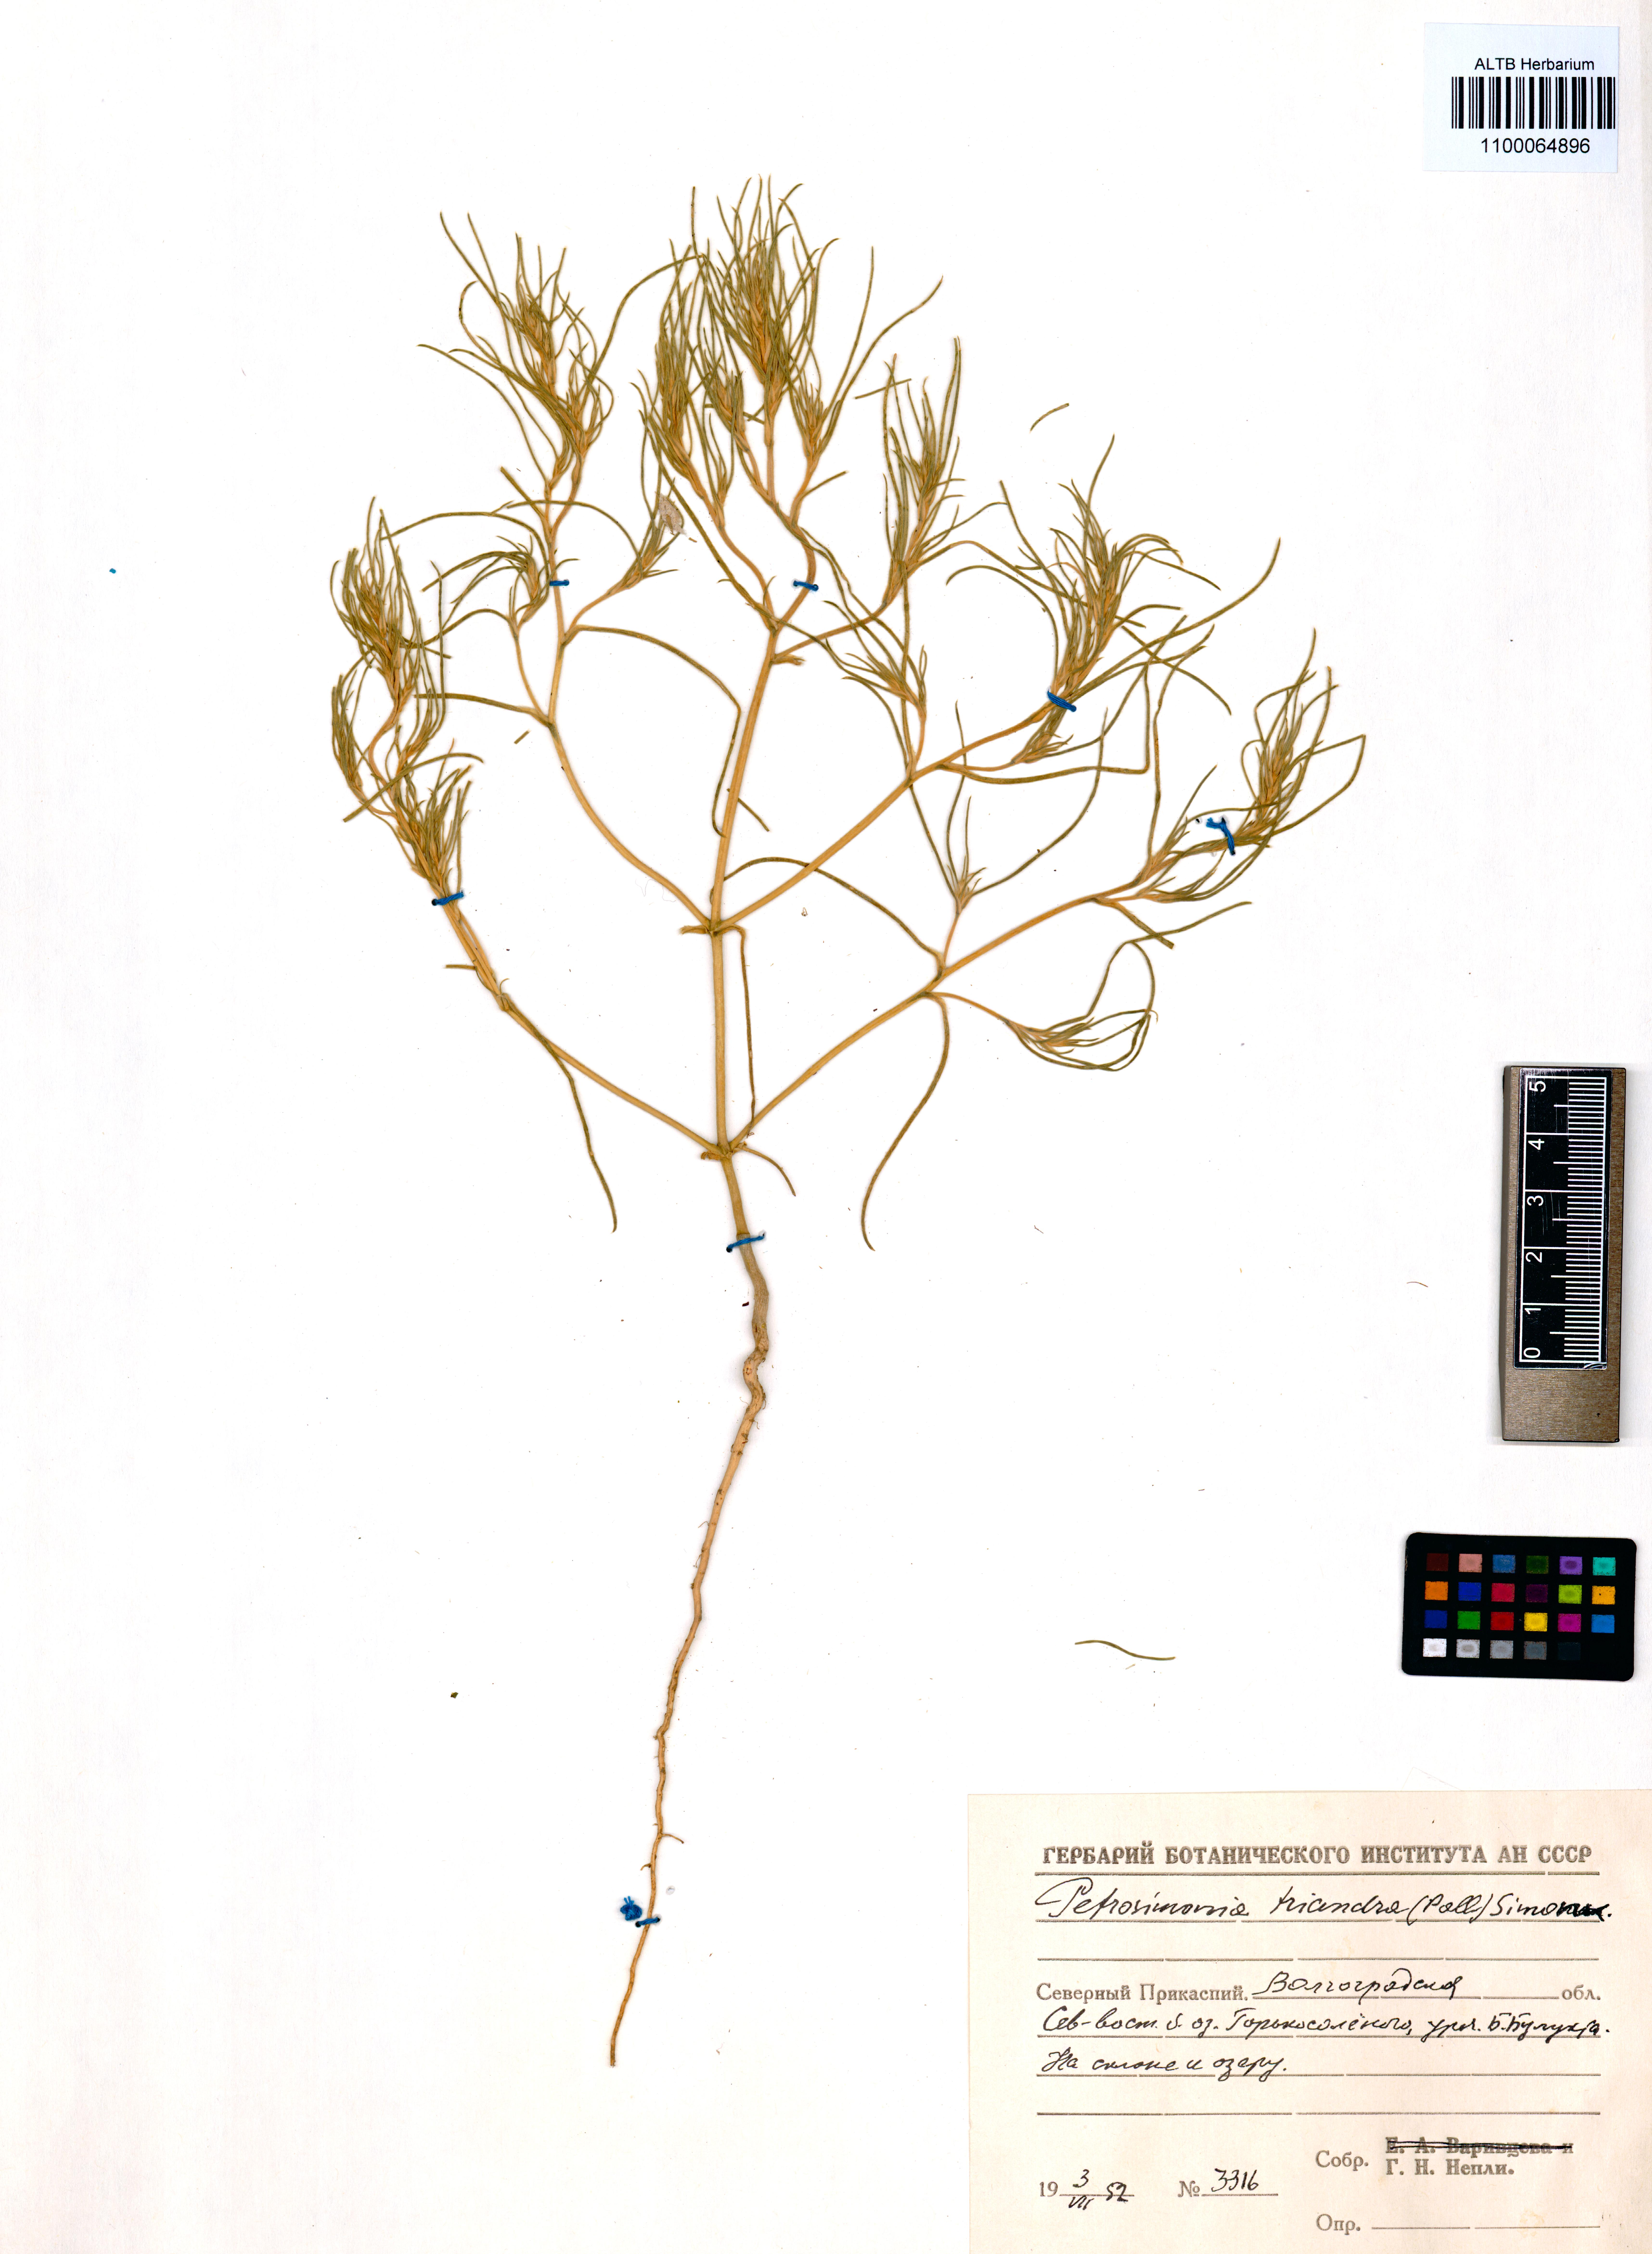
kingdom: Plantae
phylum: Tracheophyta
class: Magnoliopsida
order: Caryophyllales
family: Amaranthaceae
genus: Petrosimonia
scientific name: Petrosimonia triandra
